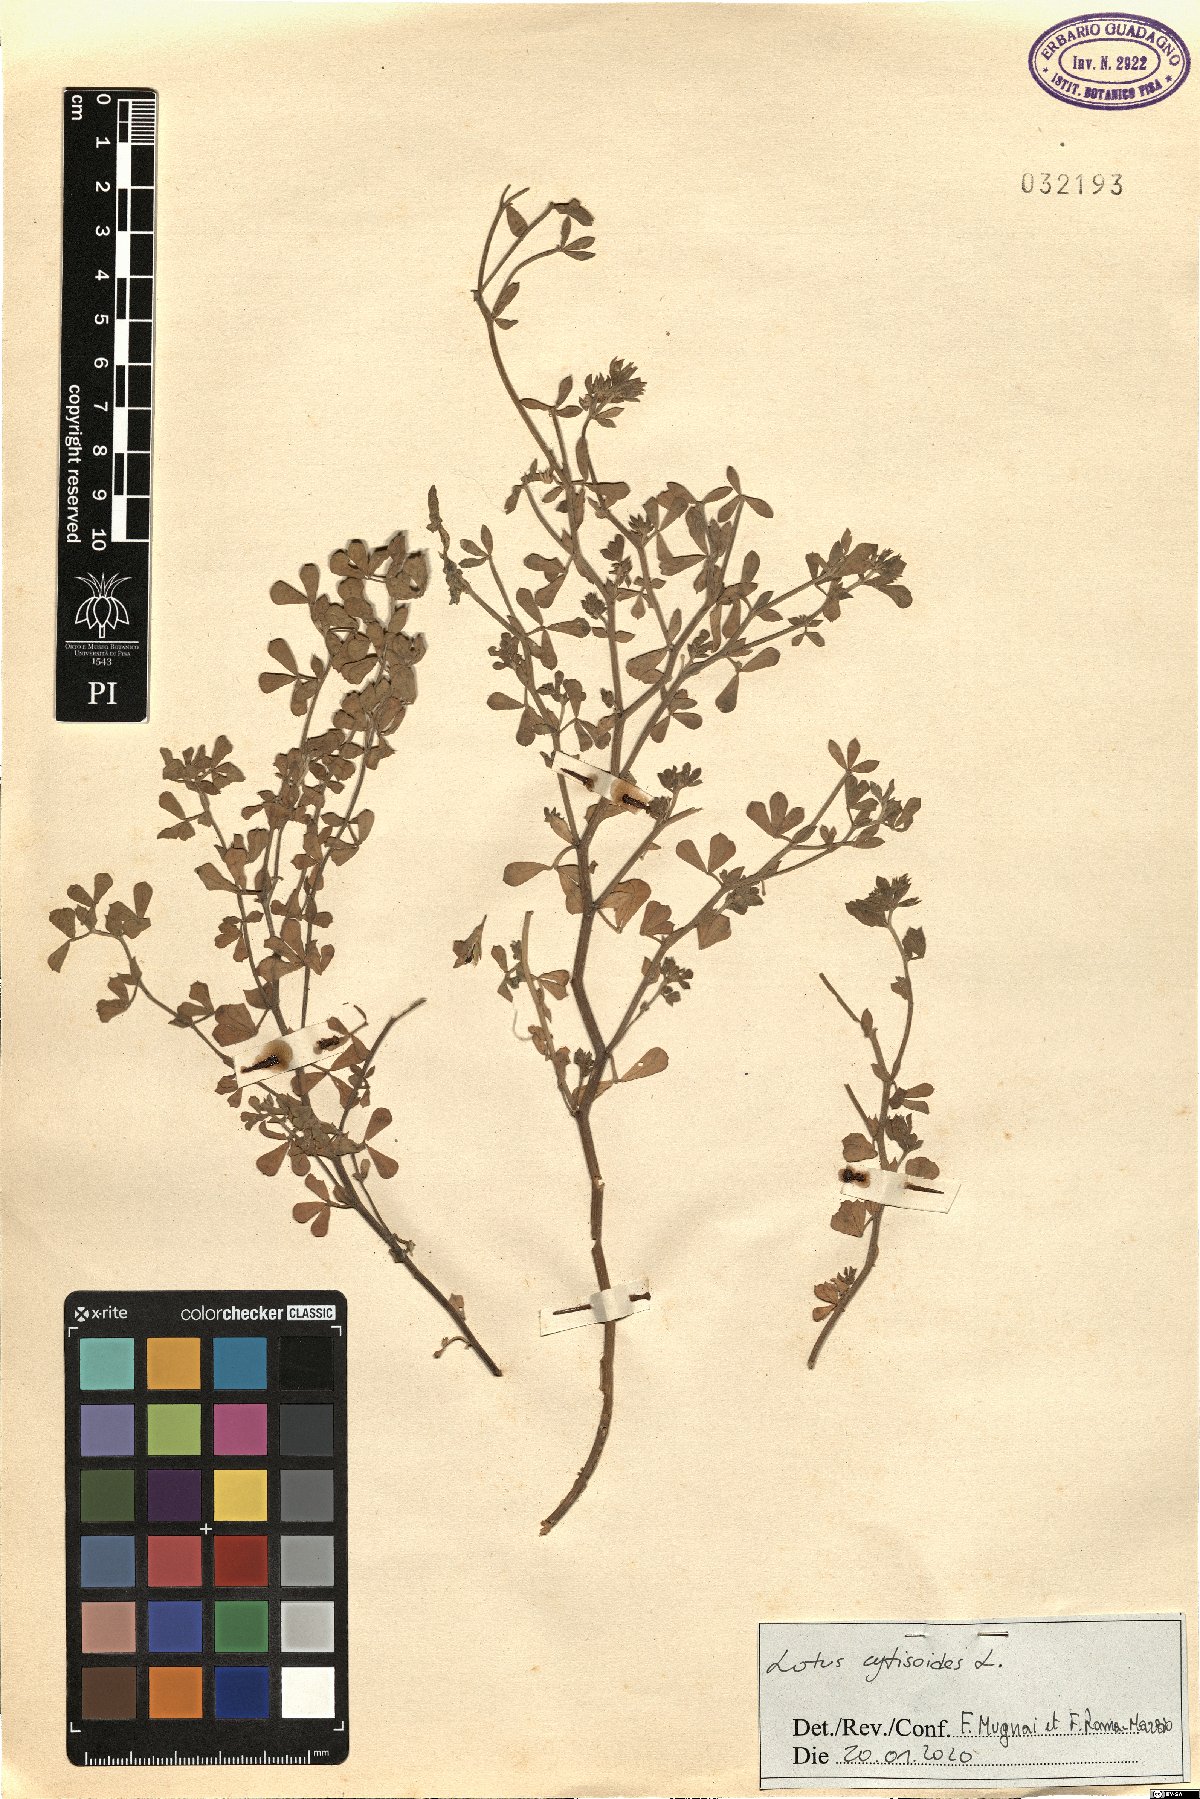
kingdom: Plantae
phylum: Tracheophyta
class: Magnoliopsida
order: Fabales
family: Fabaceae
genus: Lotus
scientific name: Lotus cytisoides
